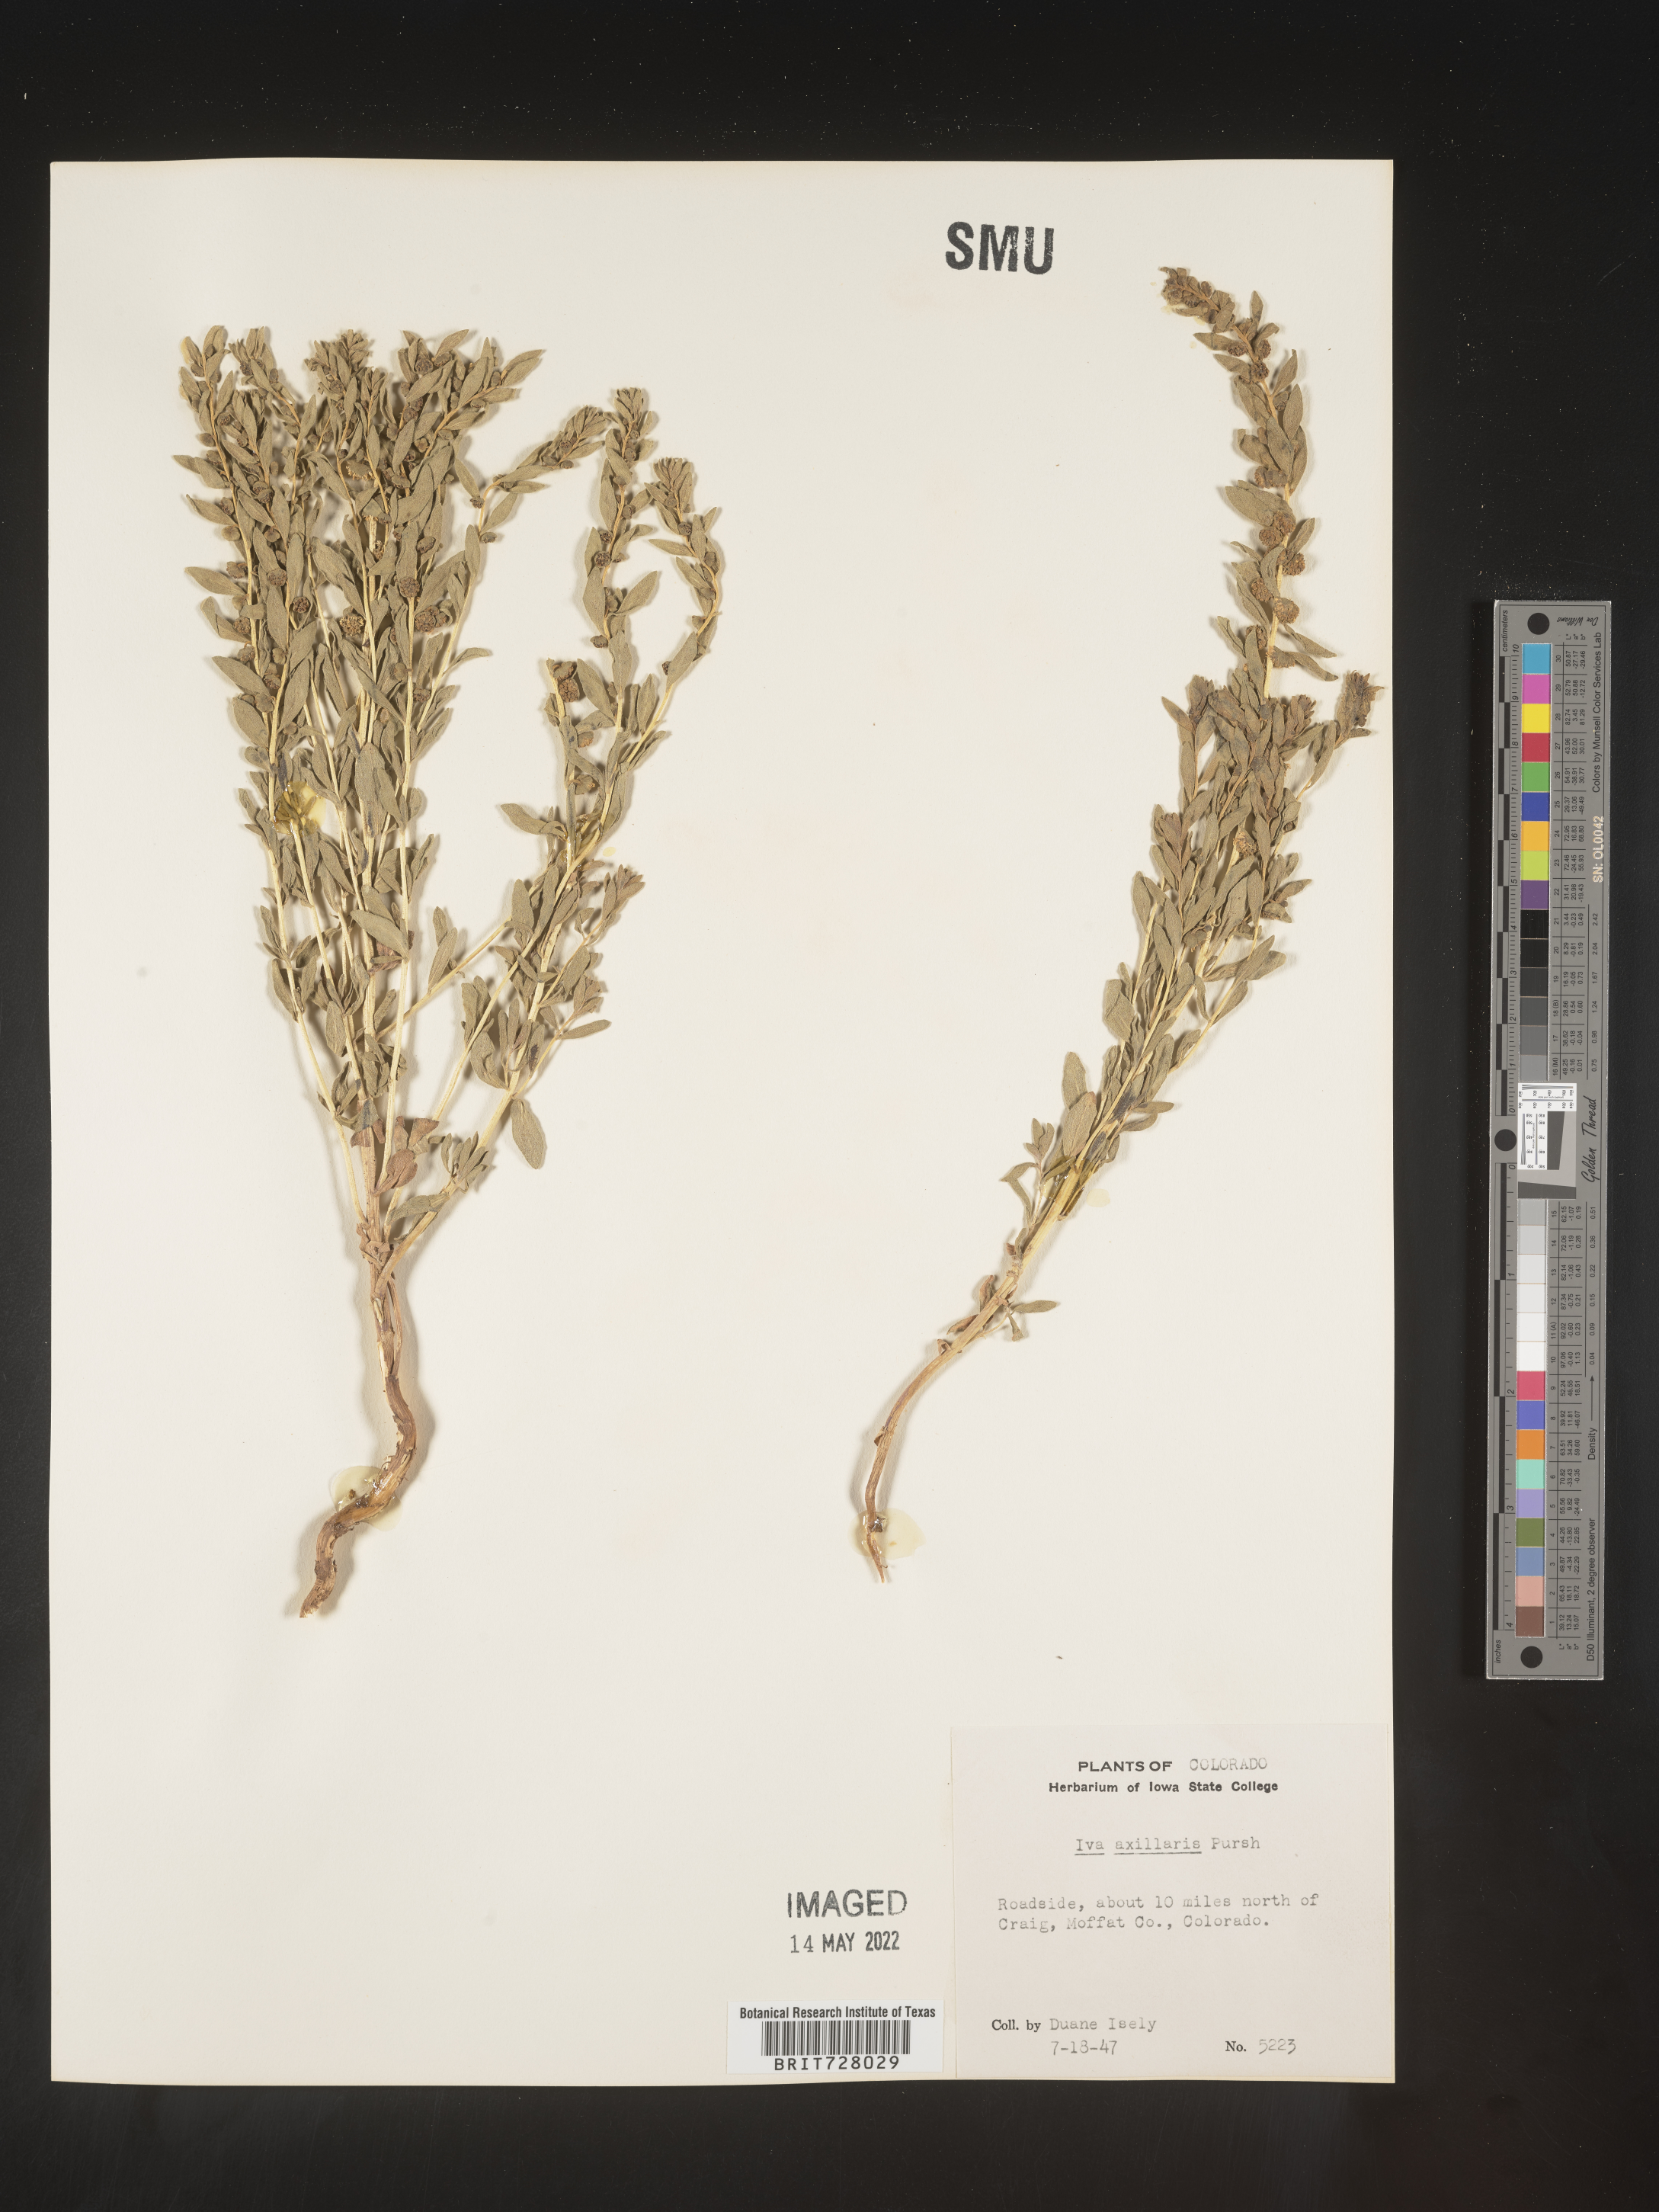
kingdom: Plantae
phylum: Tracheophyta
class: Magnoliopsida
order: Asterales
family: Asteraceae
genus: Iva
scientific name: Iva axillaris
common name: Poverty sumpweed
